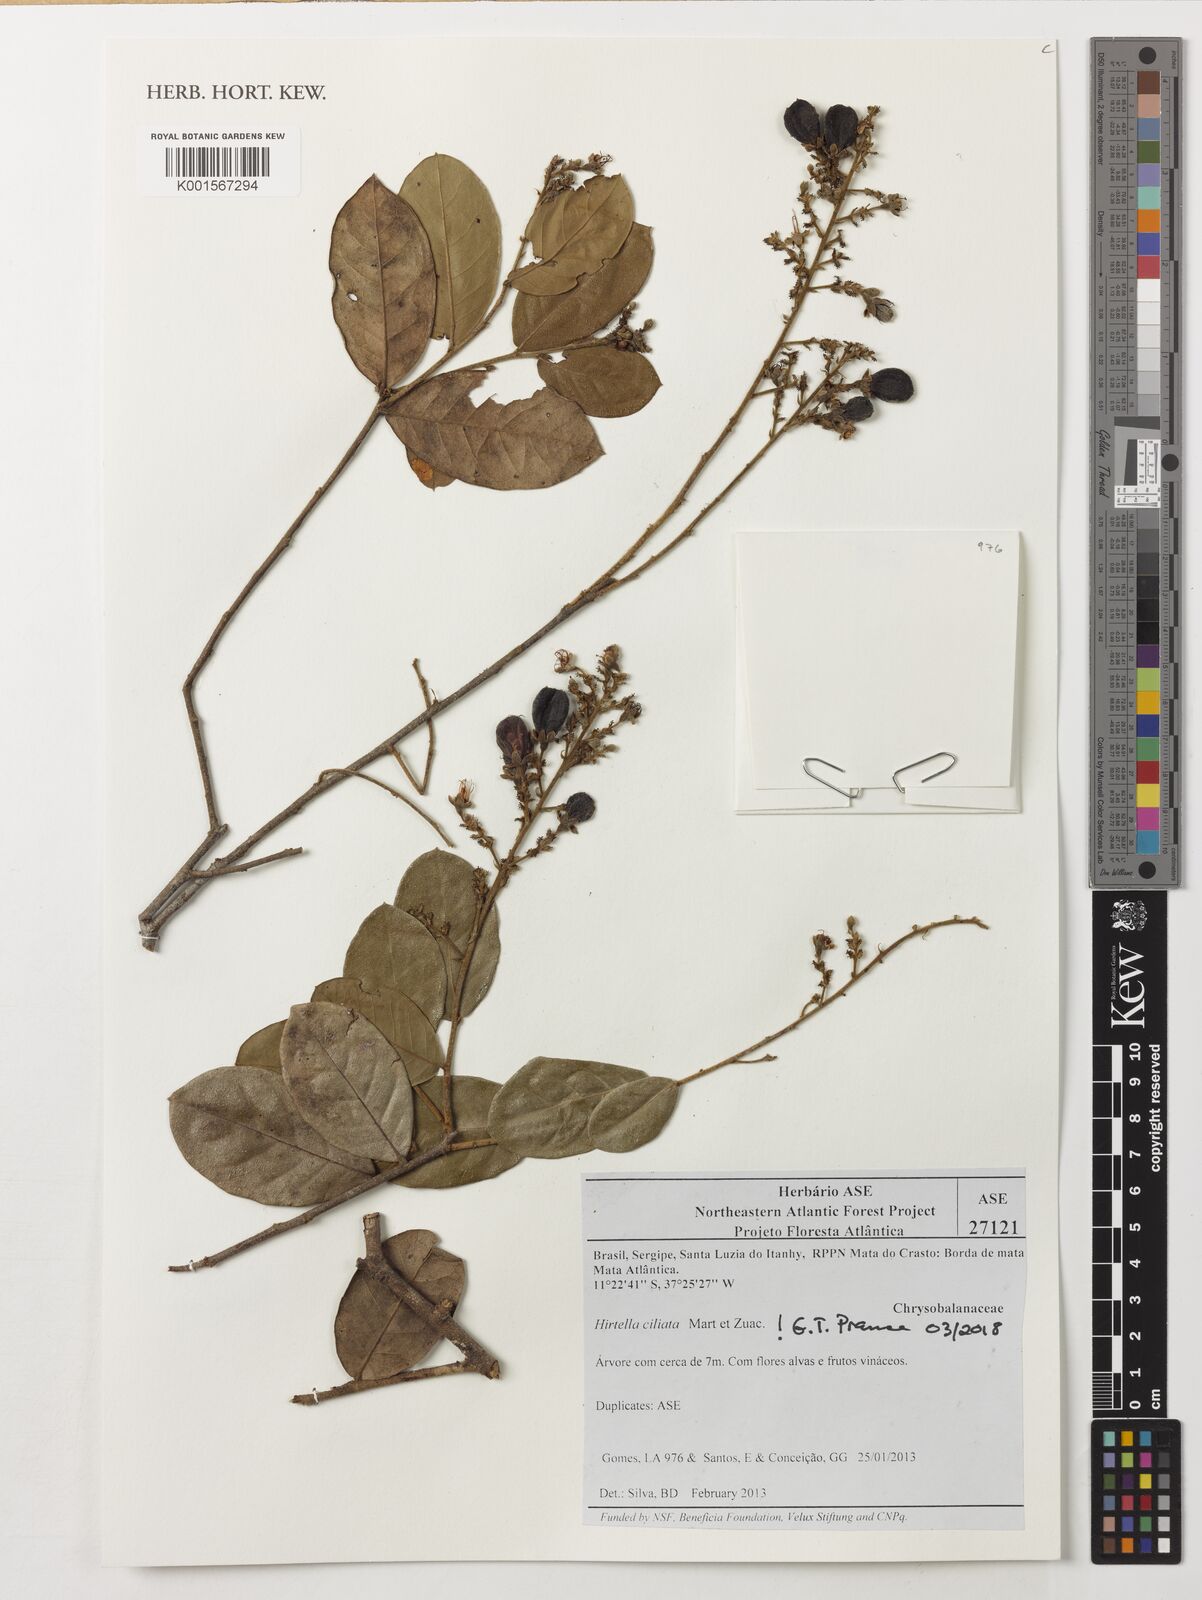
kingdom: Plantae
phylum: Tracheophyta
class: Magnoliopsida
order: Malpighiales
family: Chrysobalanaceae
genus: Hirtella
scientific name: Hirtella ciliata
